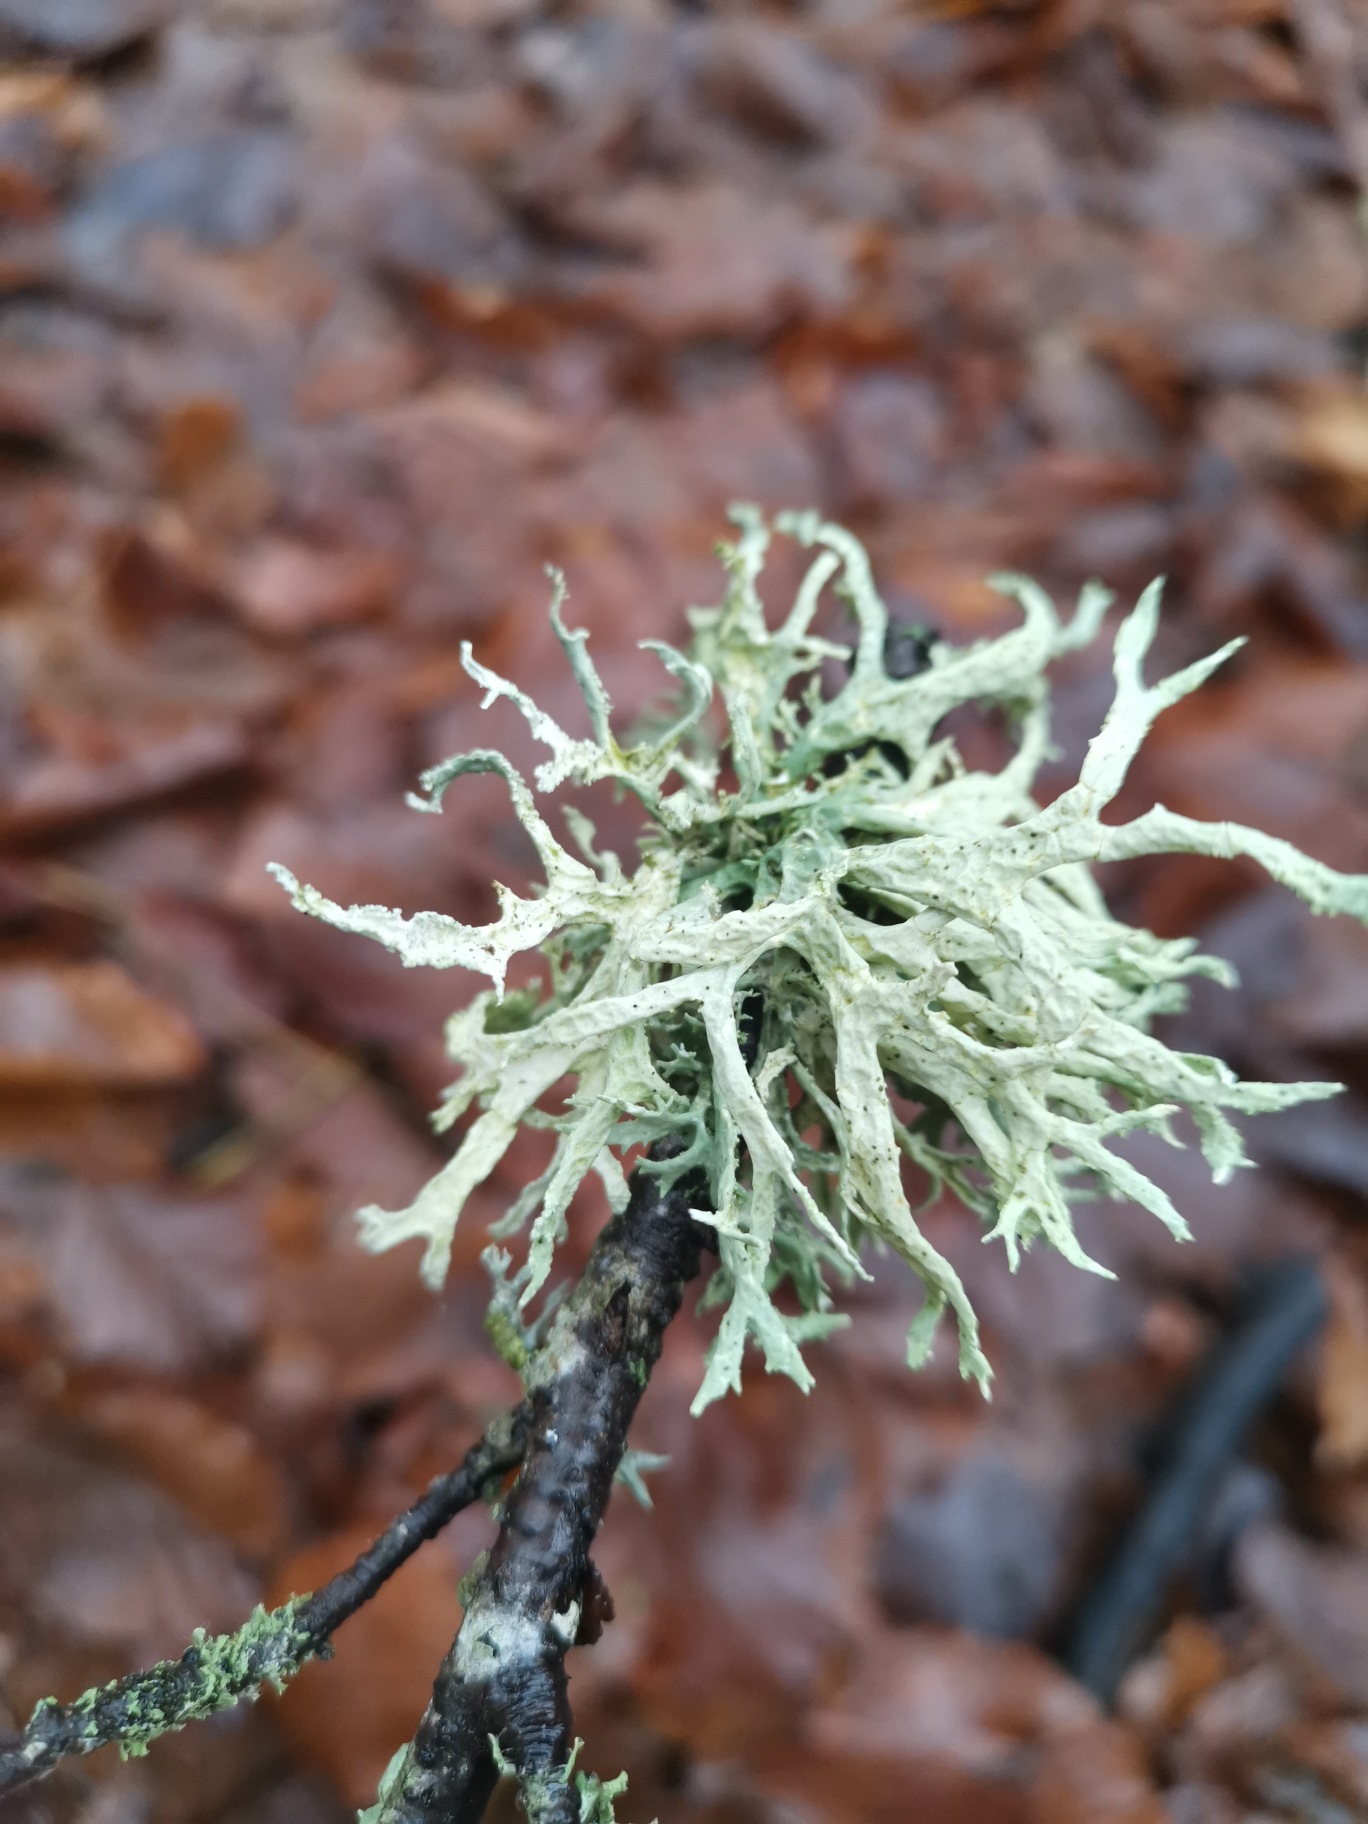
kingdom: Fungi
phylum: Ascomycota
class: Lecanoromycetes
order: Lecanorales
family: Parmeliaceae
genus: Evernia
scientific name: Evernia prunastri
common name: Almindelig slåenlav
